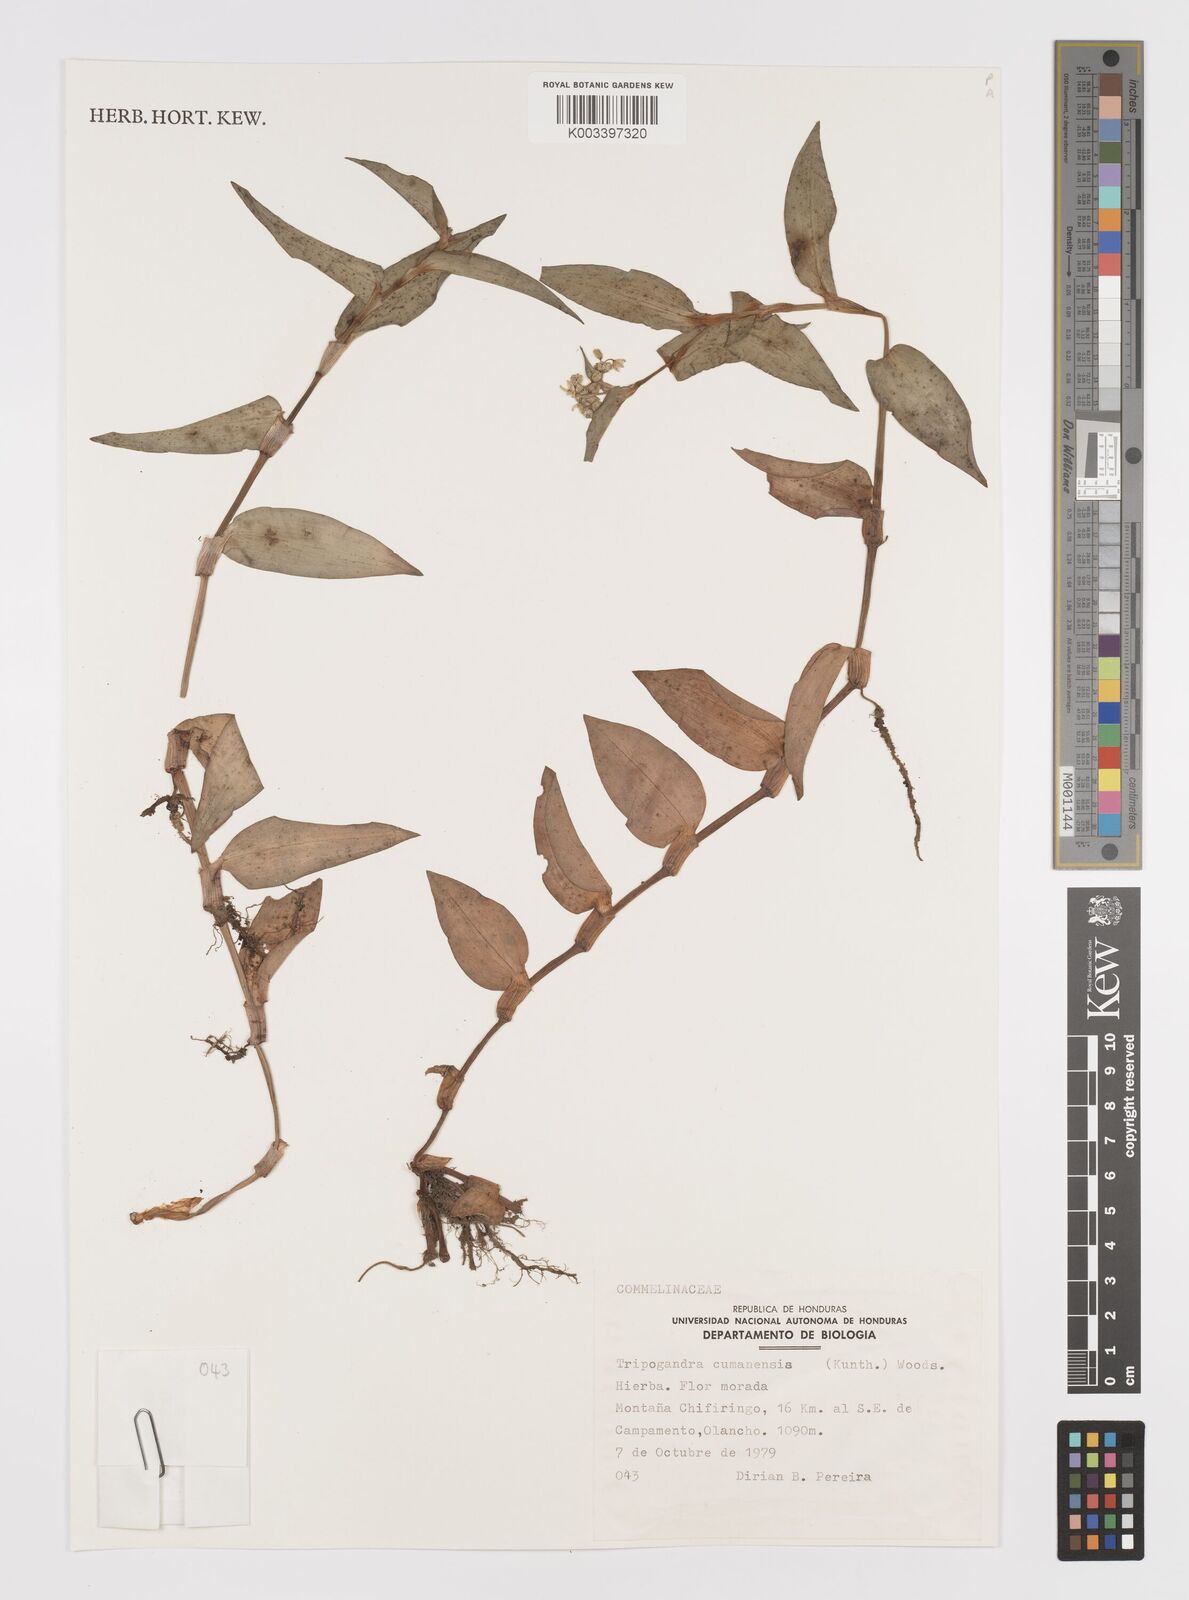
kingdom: Plantae
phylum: Tracheophyta
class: Liliopsida
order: Commelinales
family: Commelinaceae
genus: Callisia
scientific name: Callisia serrulata
